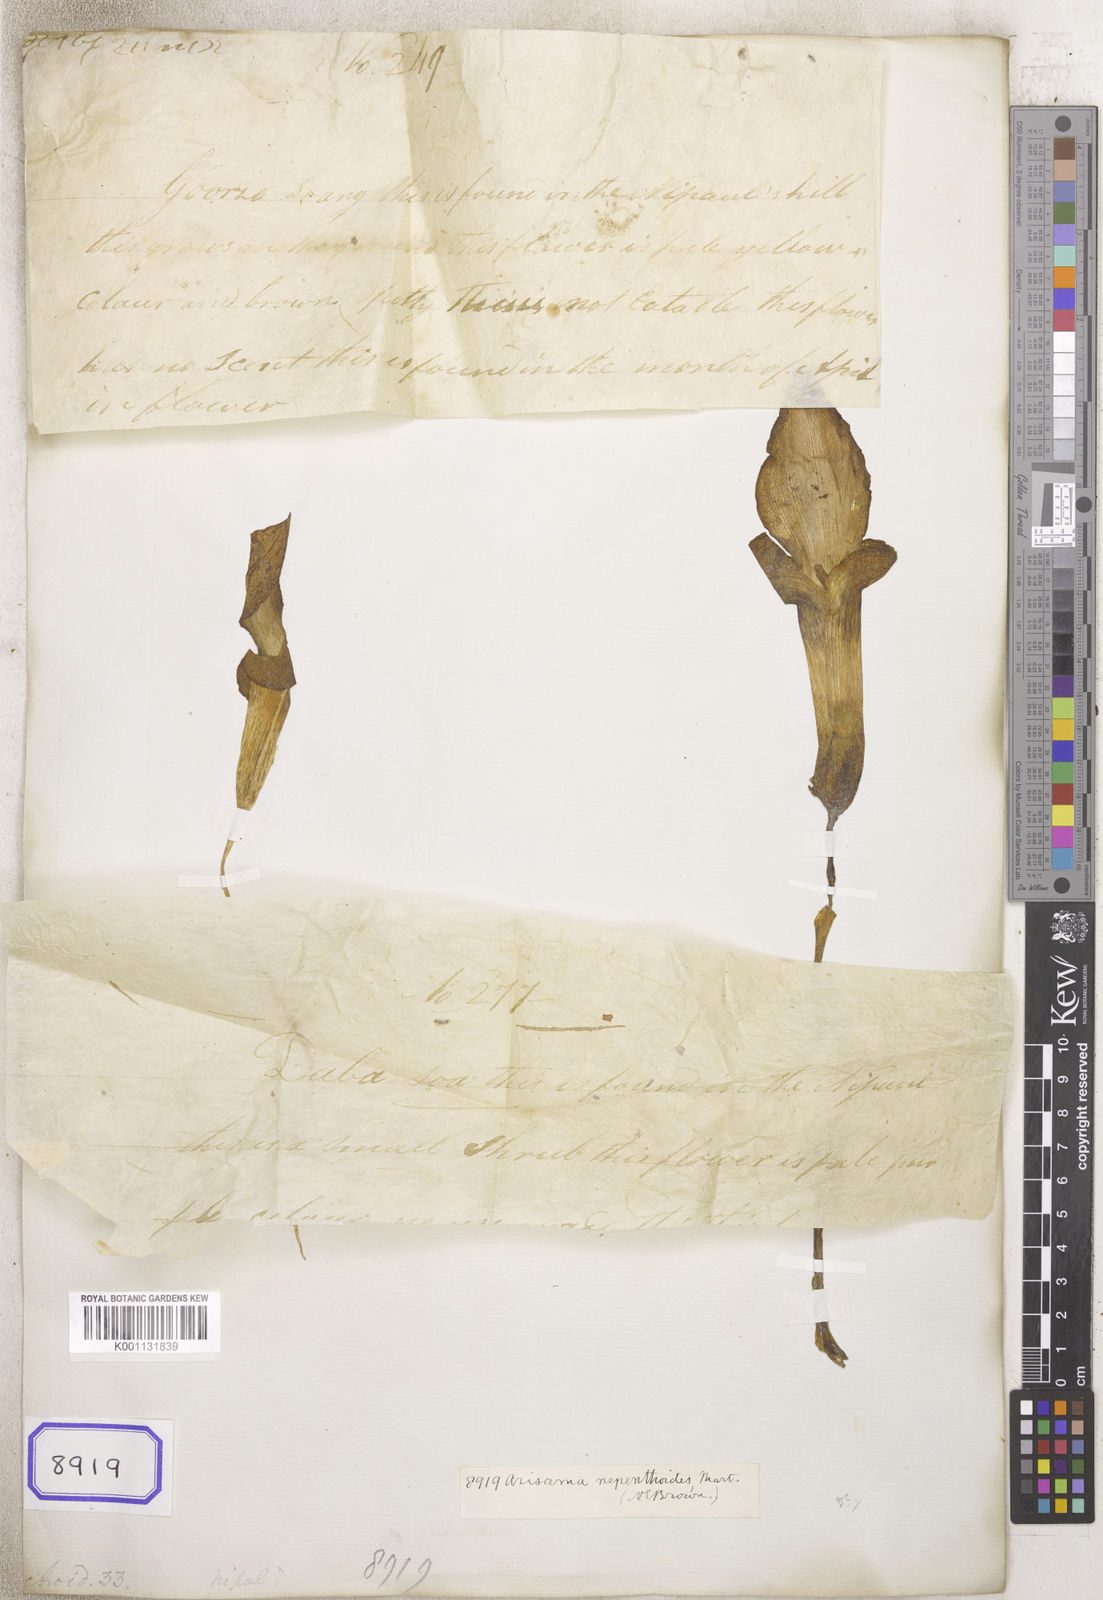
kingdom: Plantae
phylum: Tracheophyta
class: Liliopsida
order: Alismatales
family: Araceae
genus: Arisaema
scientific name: Arisaema nepenthoides
